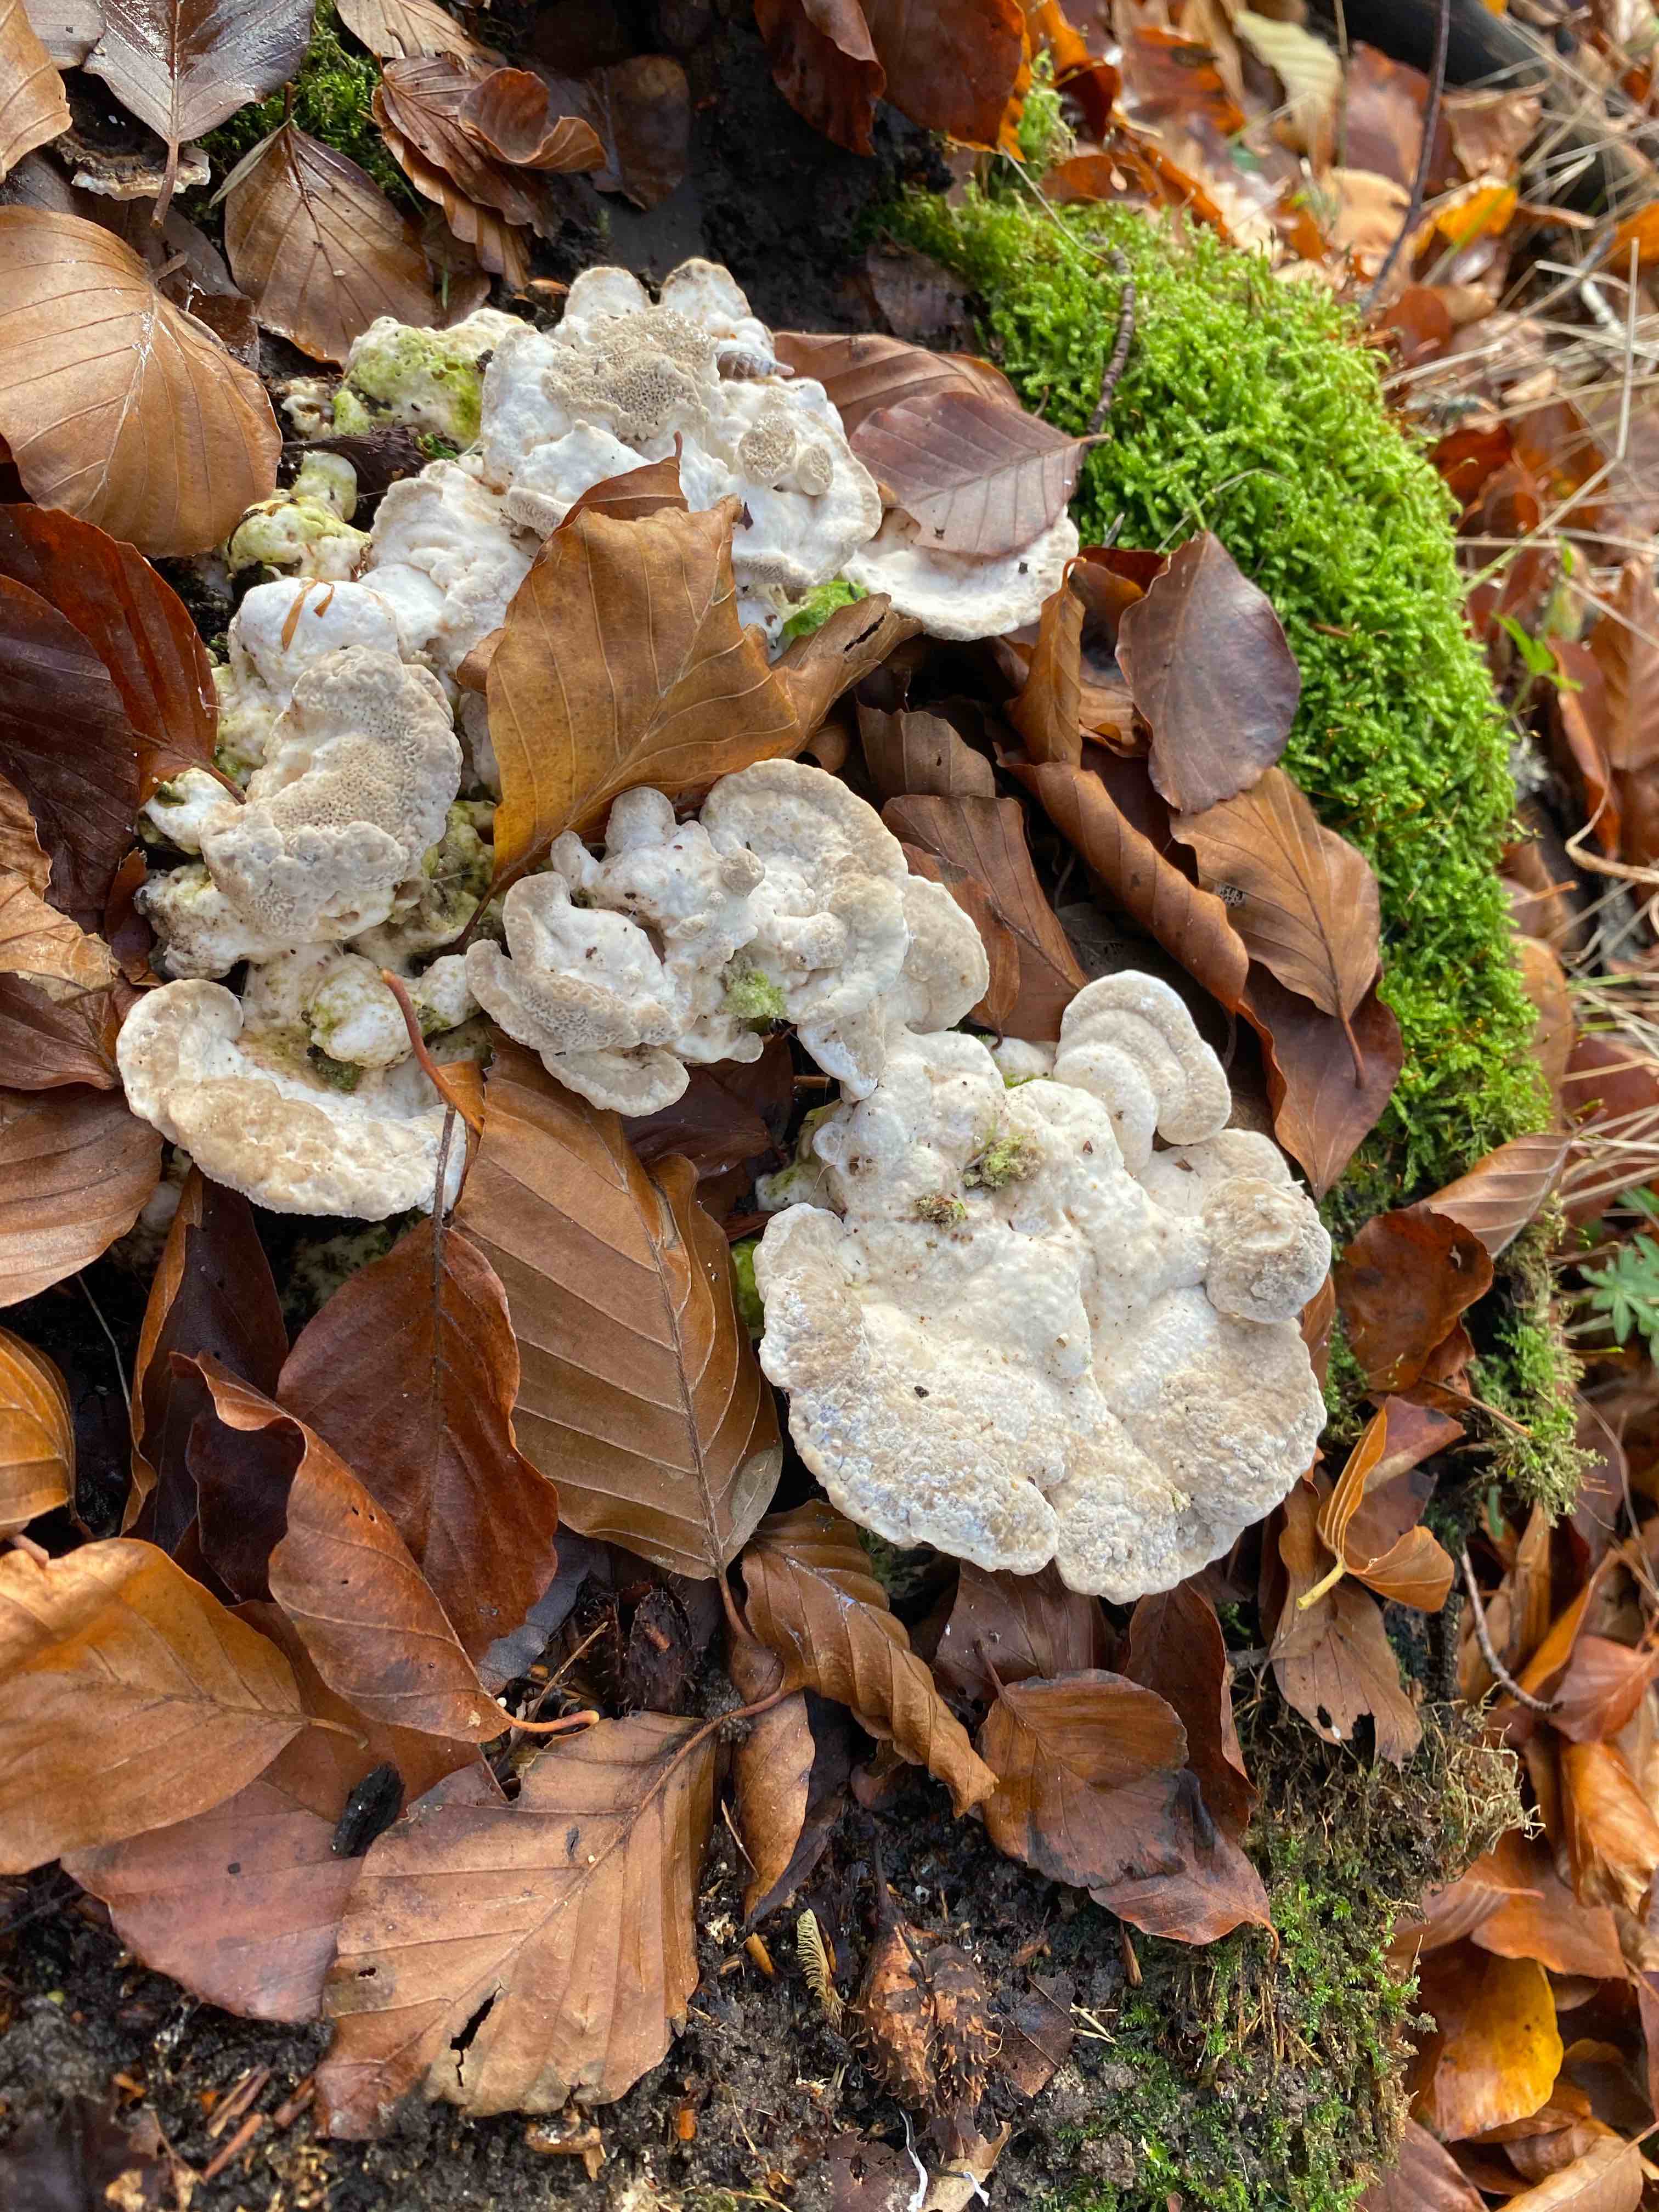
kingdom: Fungi
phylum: Basidiomycota
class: Agaricomycetes
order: Polyporales
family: Polyporaceae
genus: Trametes
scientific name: Trametes gibbosa
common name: puklet læderporesvamp
